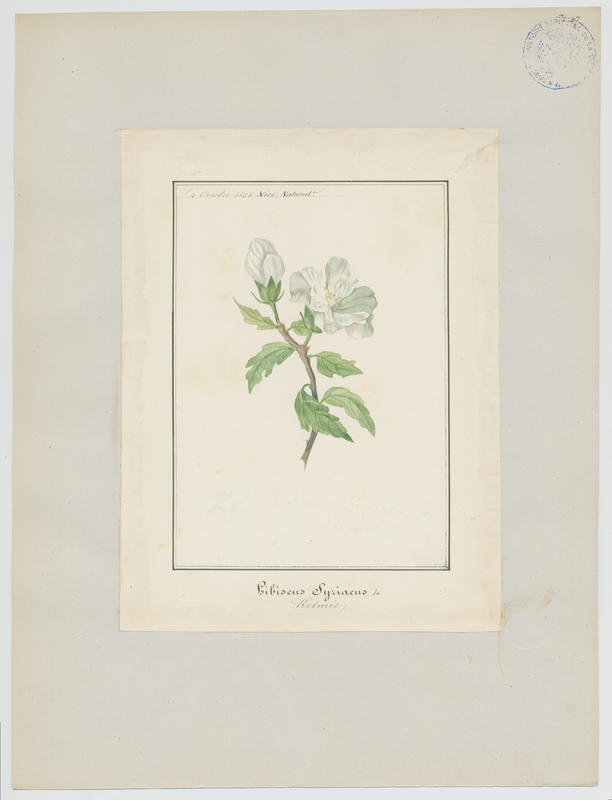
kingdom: Plantae
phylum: Tracheophyta
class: Magnoliopsida
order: Malvales
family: Malvaceae
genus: Hibiscus
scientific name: Hibiscus syriacus
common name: Syrian ketmia
